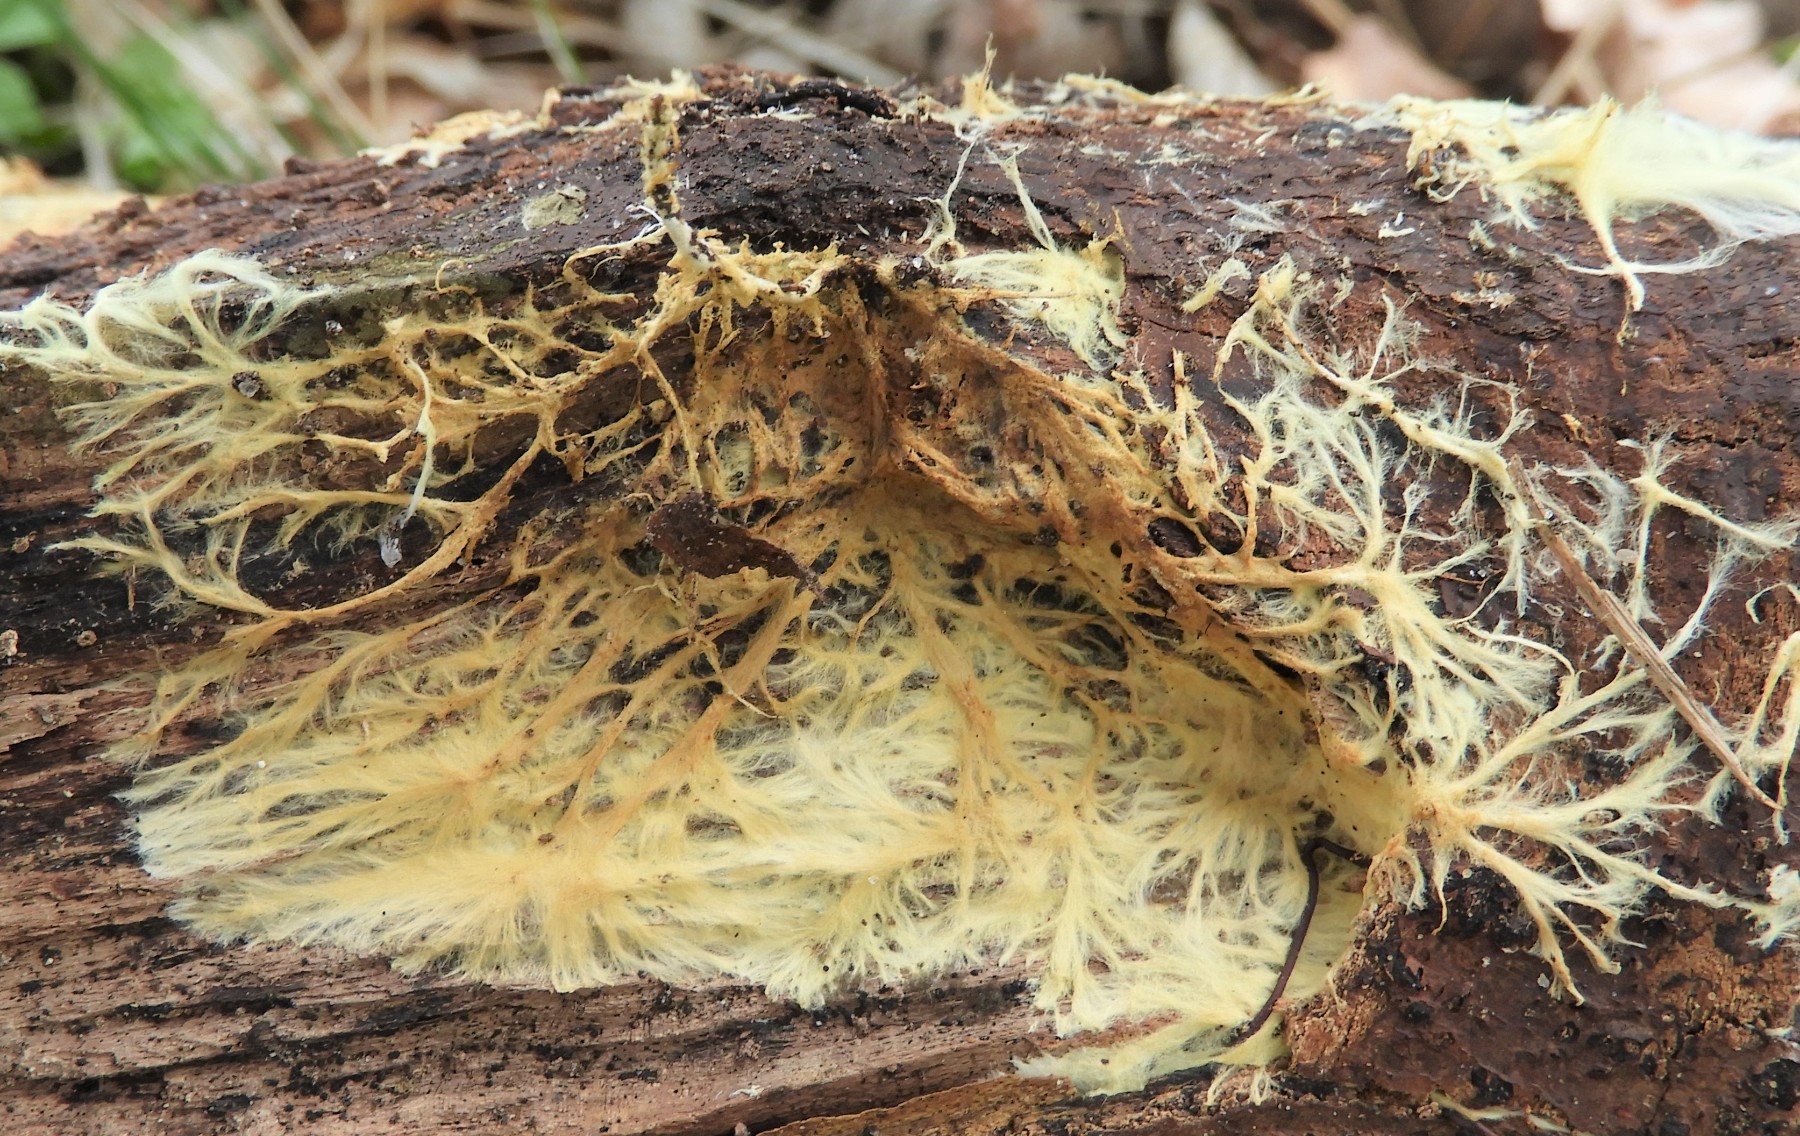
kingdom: Fungi
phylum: Basidiomycota
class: Agaricomycetes
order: Russulales
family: Xenasmataceae
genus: Xenasmatella
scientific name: Xenasmatella vaga
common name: svovl-strenghinde
